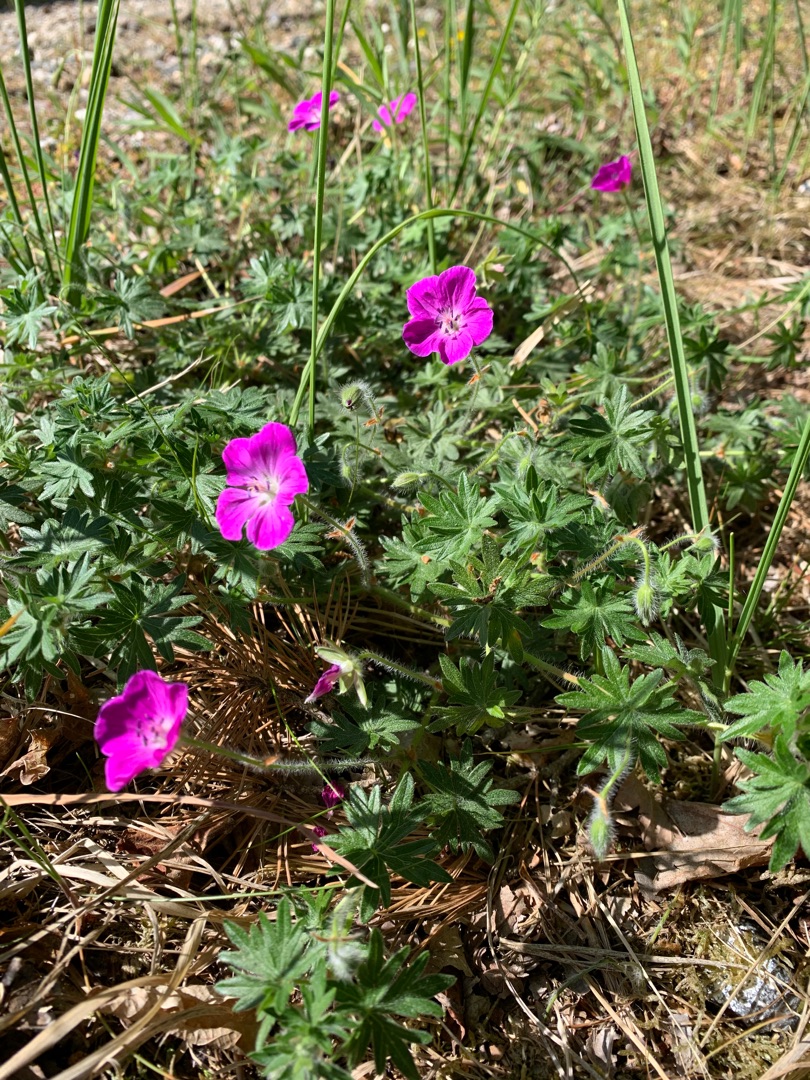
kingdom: Plantae
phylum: Tracheophyta
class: Magnoliopsida
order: Geraniales
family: Geraniaceae
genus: Geranium
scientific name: Geranium sanguineum
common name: Blodrød storkenæb
